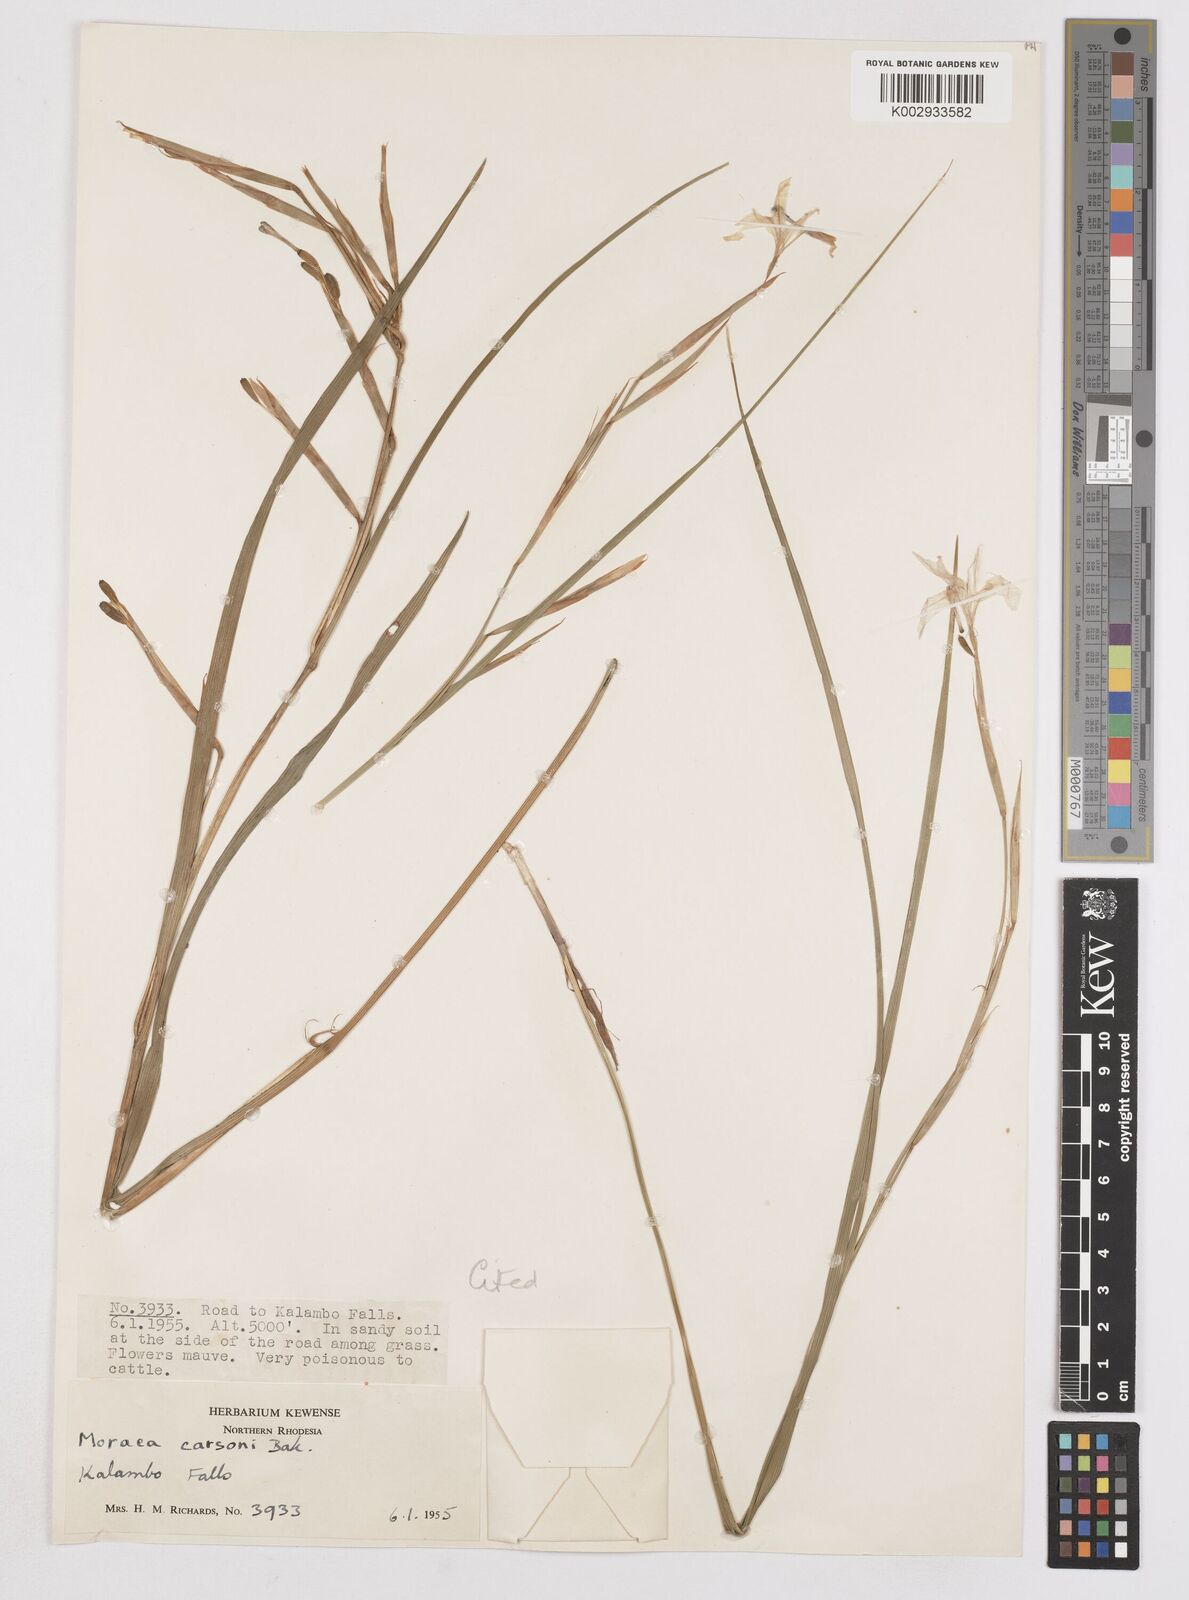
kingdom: Plantae
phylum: Tracheophyta
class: Liliopsida
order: Asparagales
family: Iridaceae
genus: Moraea
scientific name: Moraea carsonii
